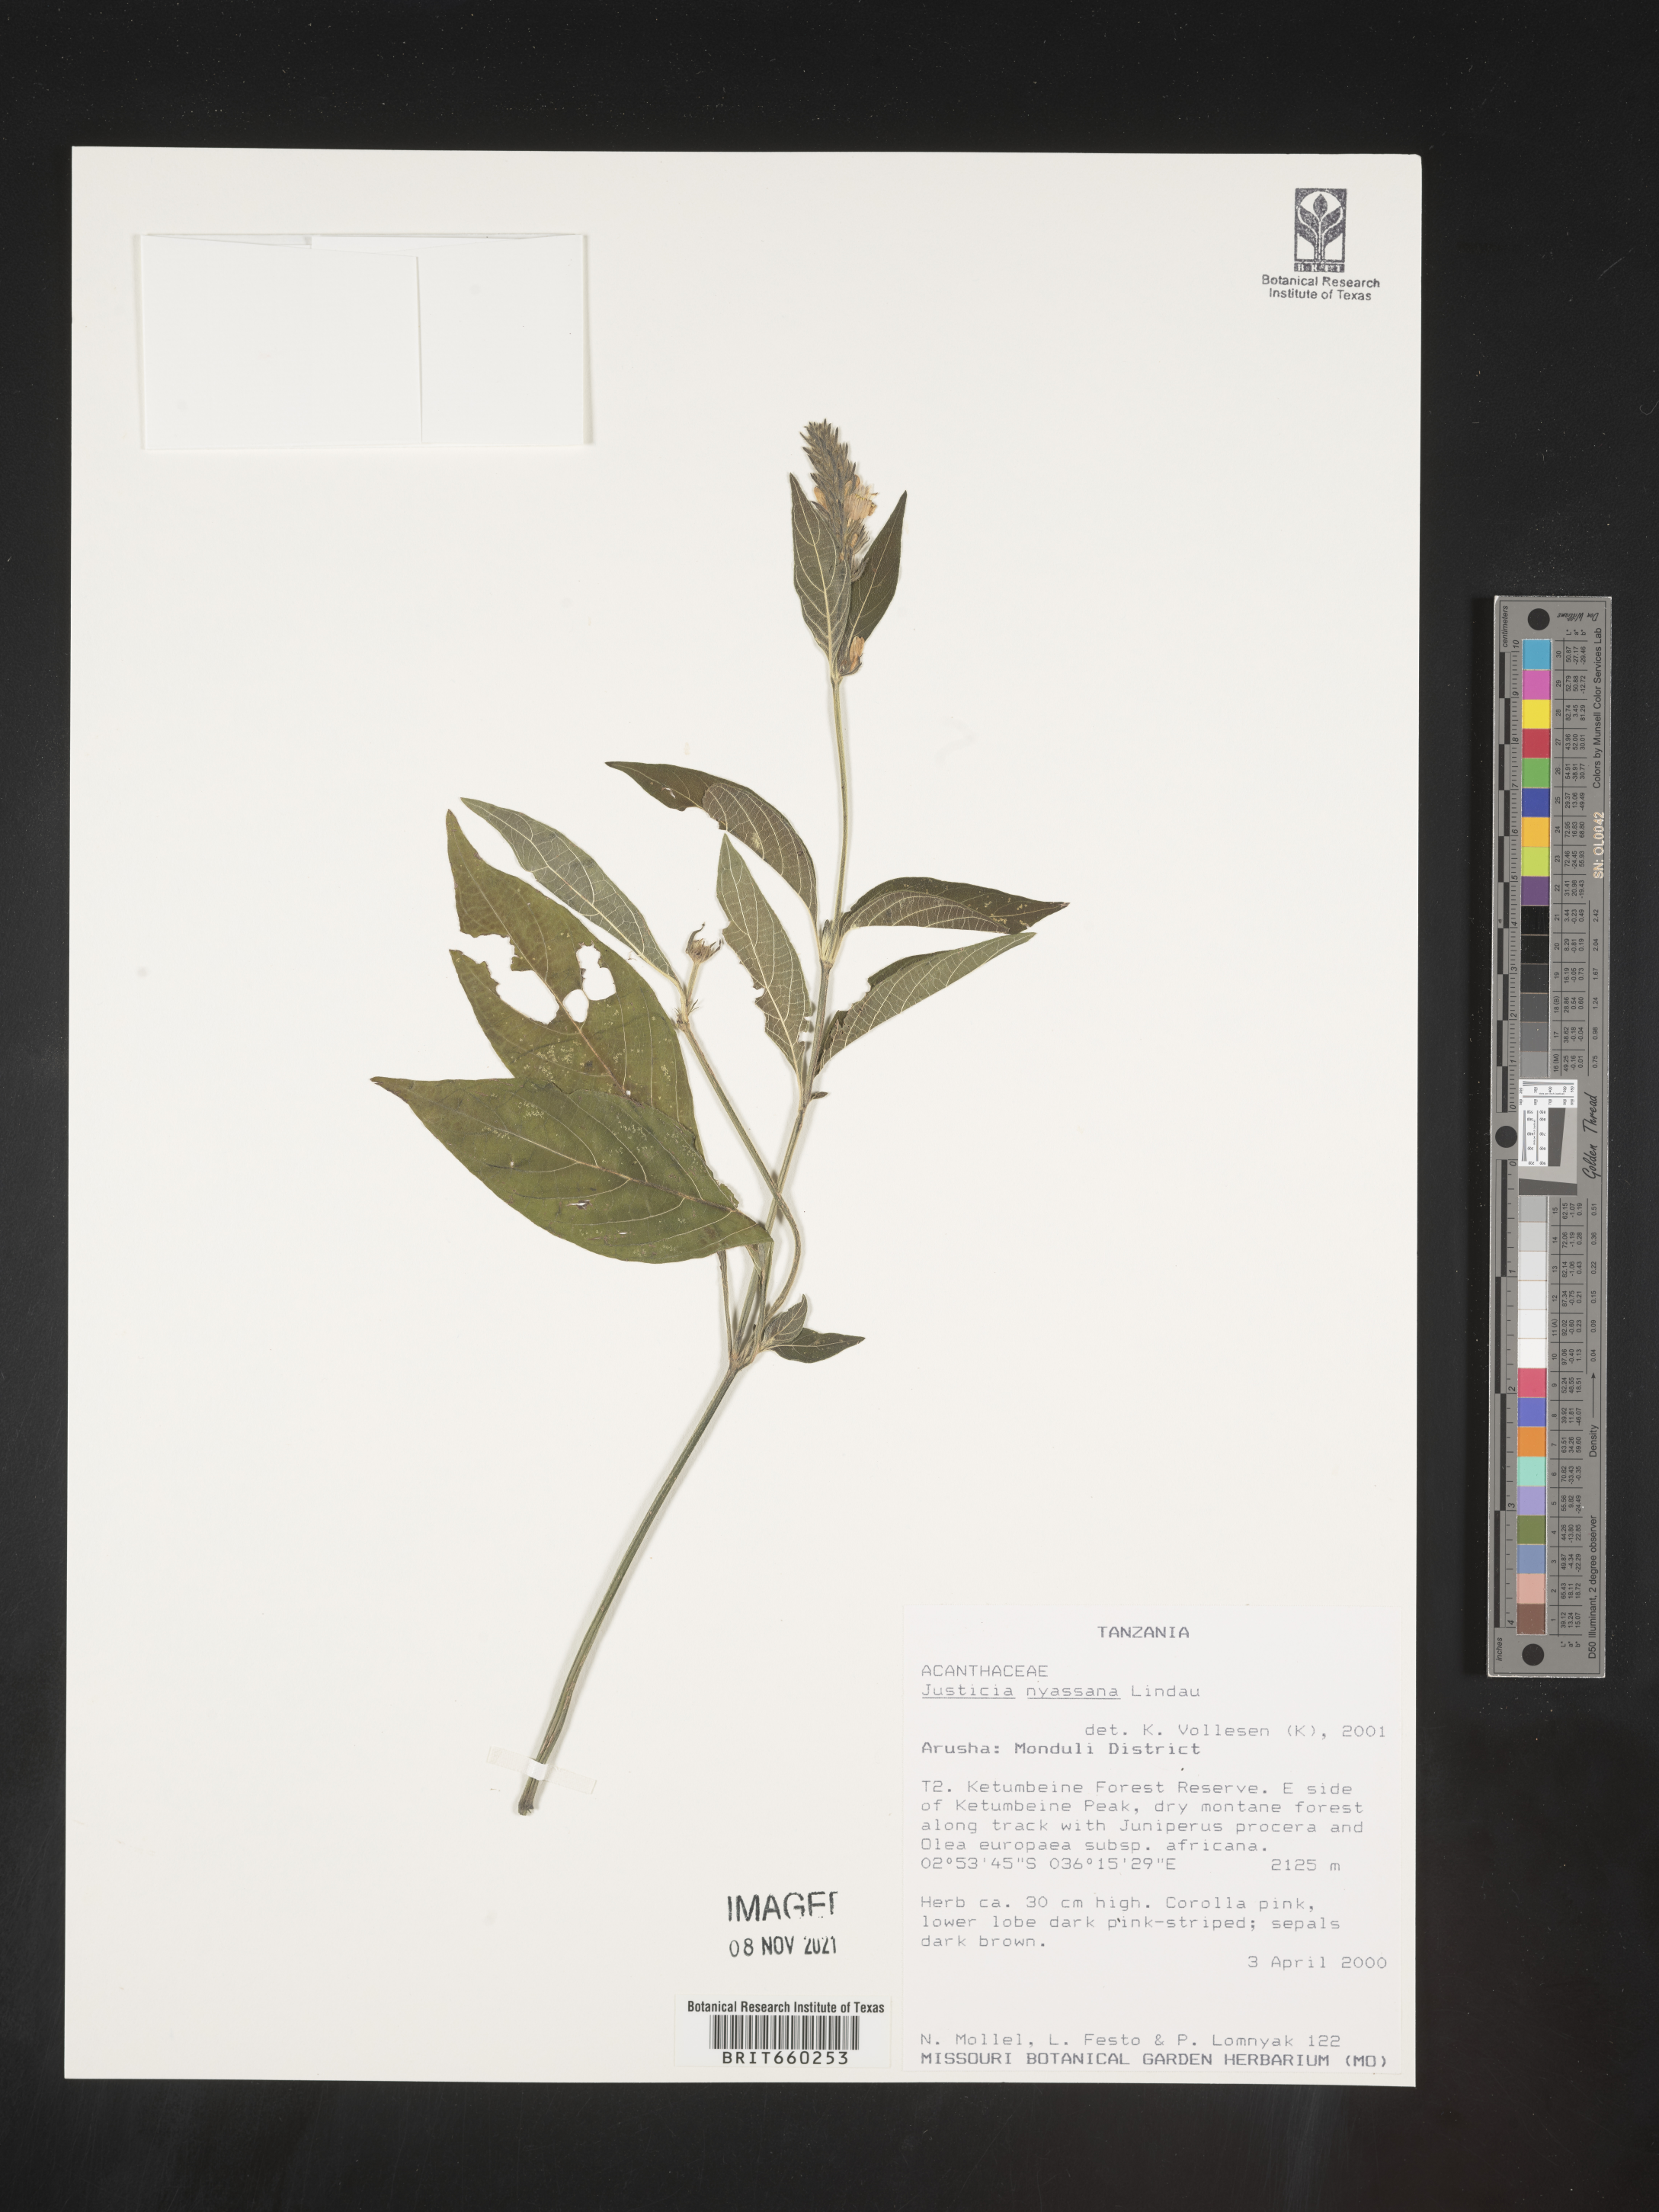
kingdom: Plantae
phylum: Tracheophyta
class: Magnoliopsida
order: Lamiales
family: Acanthaceae
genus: Justicia
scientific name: Justicia nyassana
